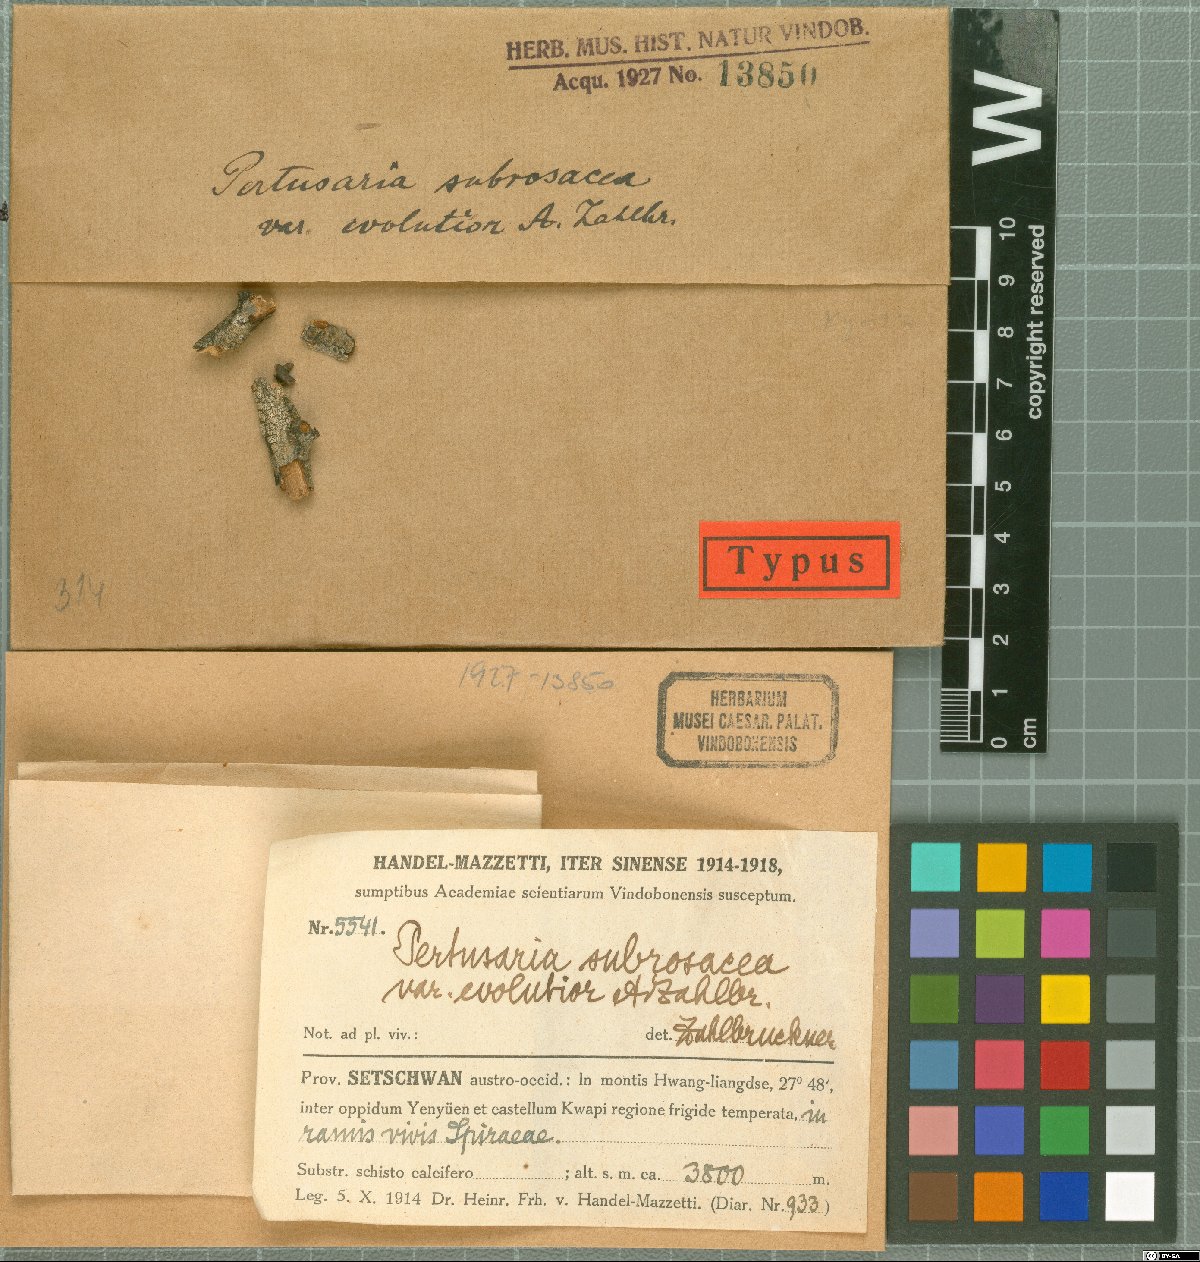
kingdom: Fungi
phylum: Ascomycota
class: Lecanoromycetes
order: Pertusariales
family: Pertusariaceae
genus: Pertusaria
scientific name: Pertusaria
